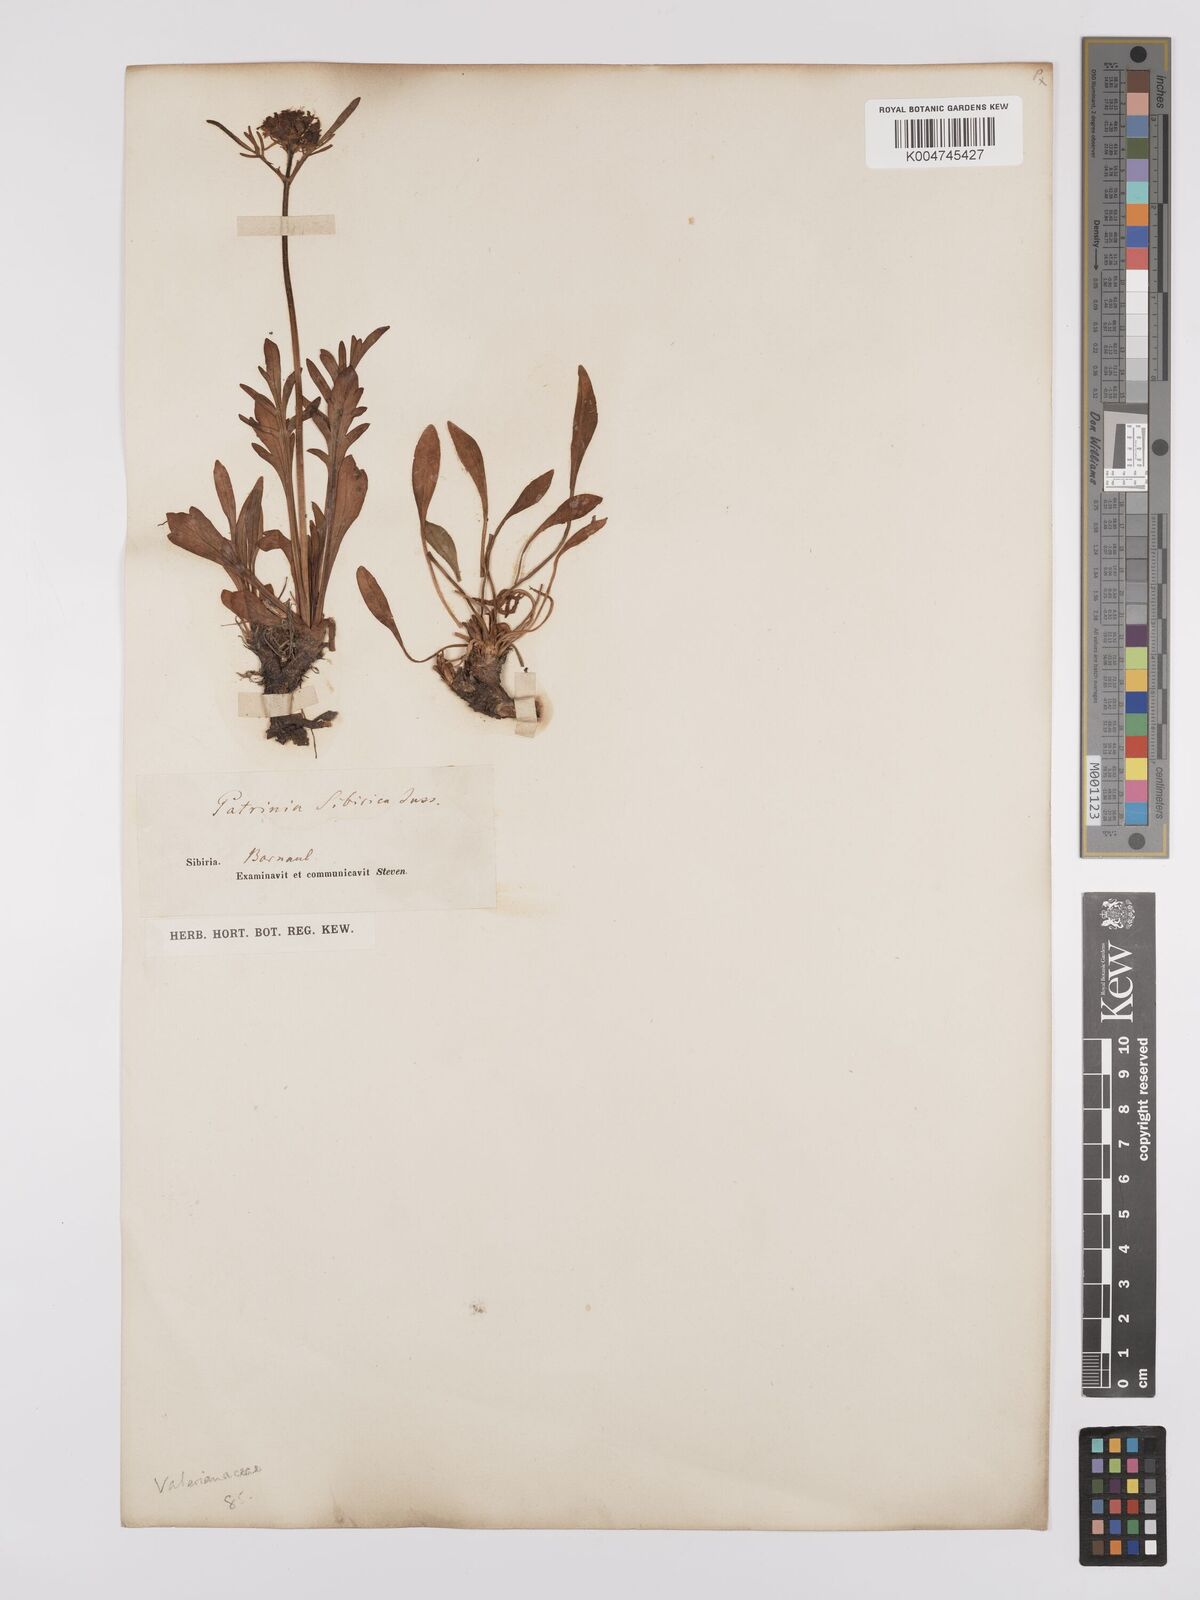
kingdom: Plantae
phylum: Tracheophyta
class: Magnoliopsida
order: Dipsacales
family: Caprifoliaceae
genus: Patrinia
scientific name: Patrinia sibirica
